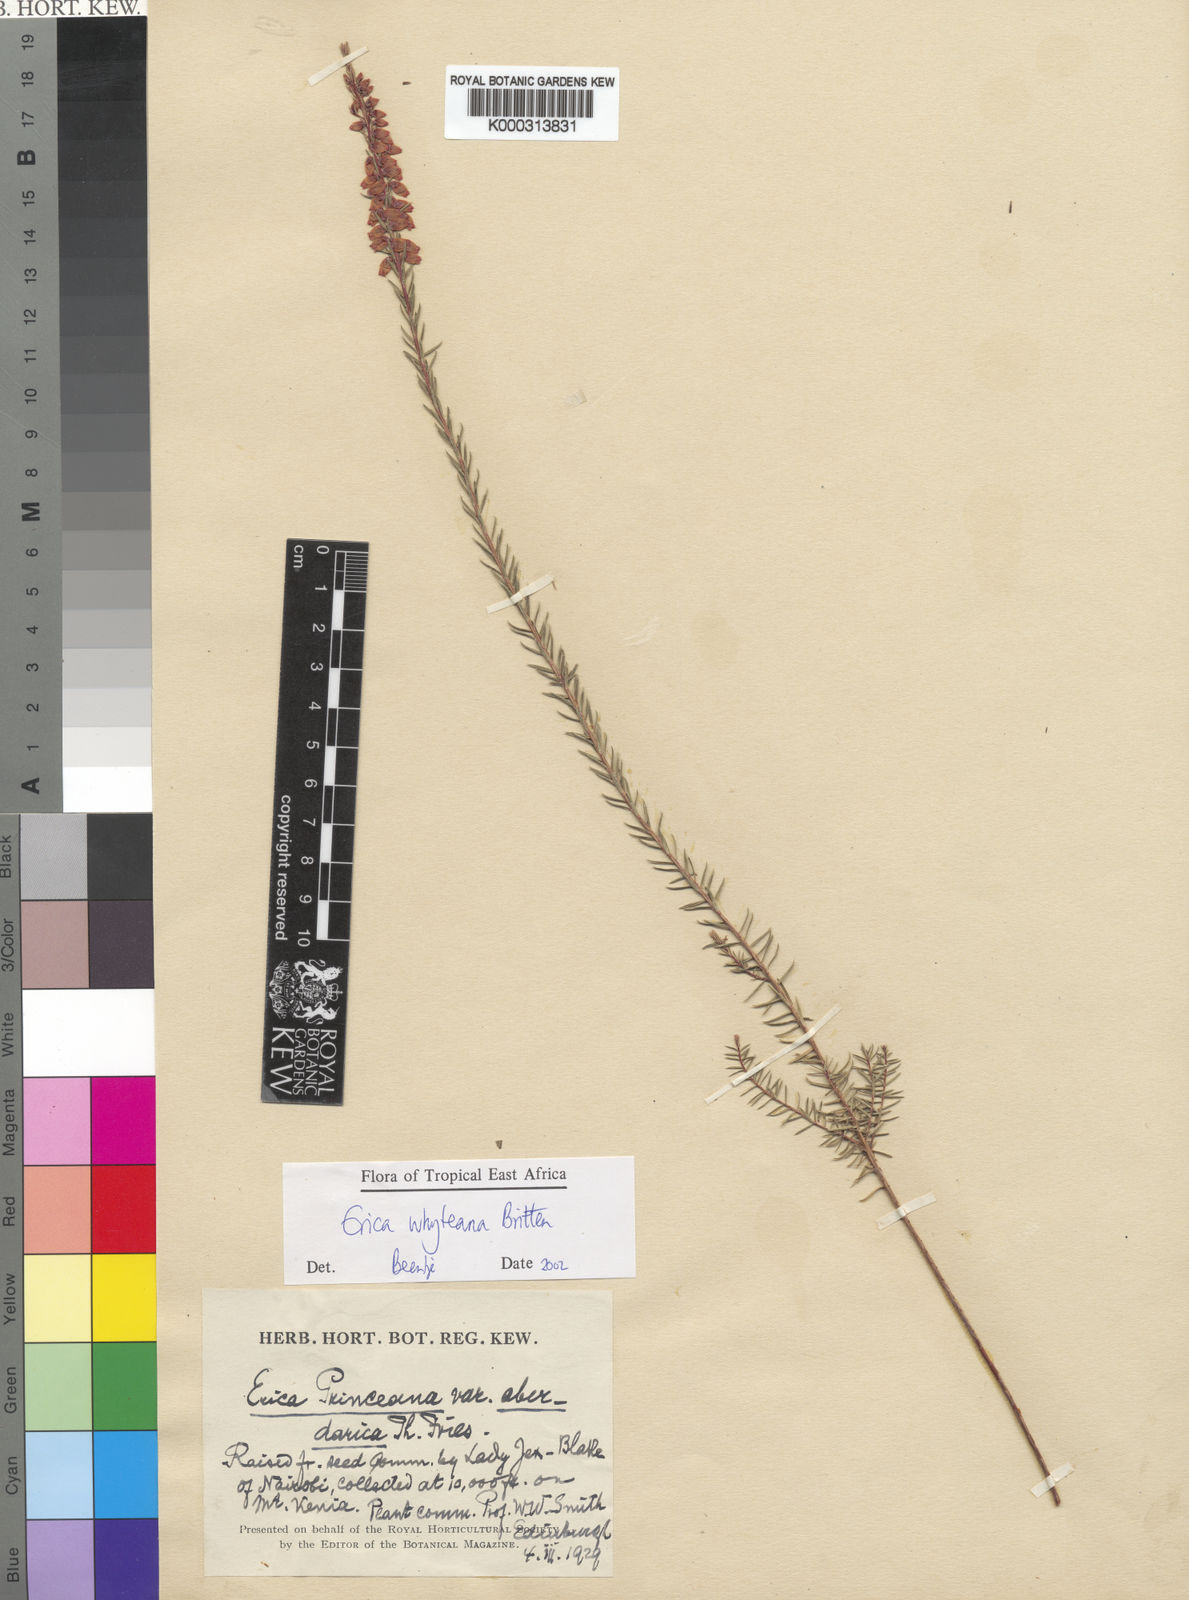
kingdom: Plantae
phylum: Tracheophyta
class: Magnoliopsida
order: Ericales
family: Ericaceae
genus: Erica
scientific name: Erica whyteana
